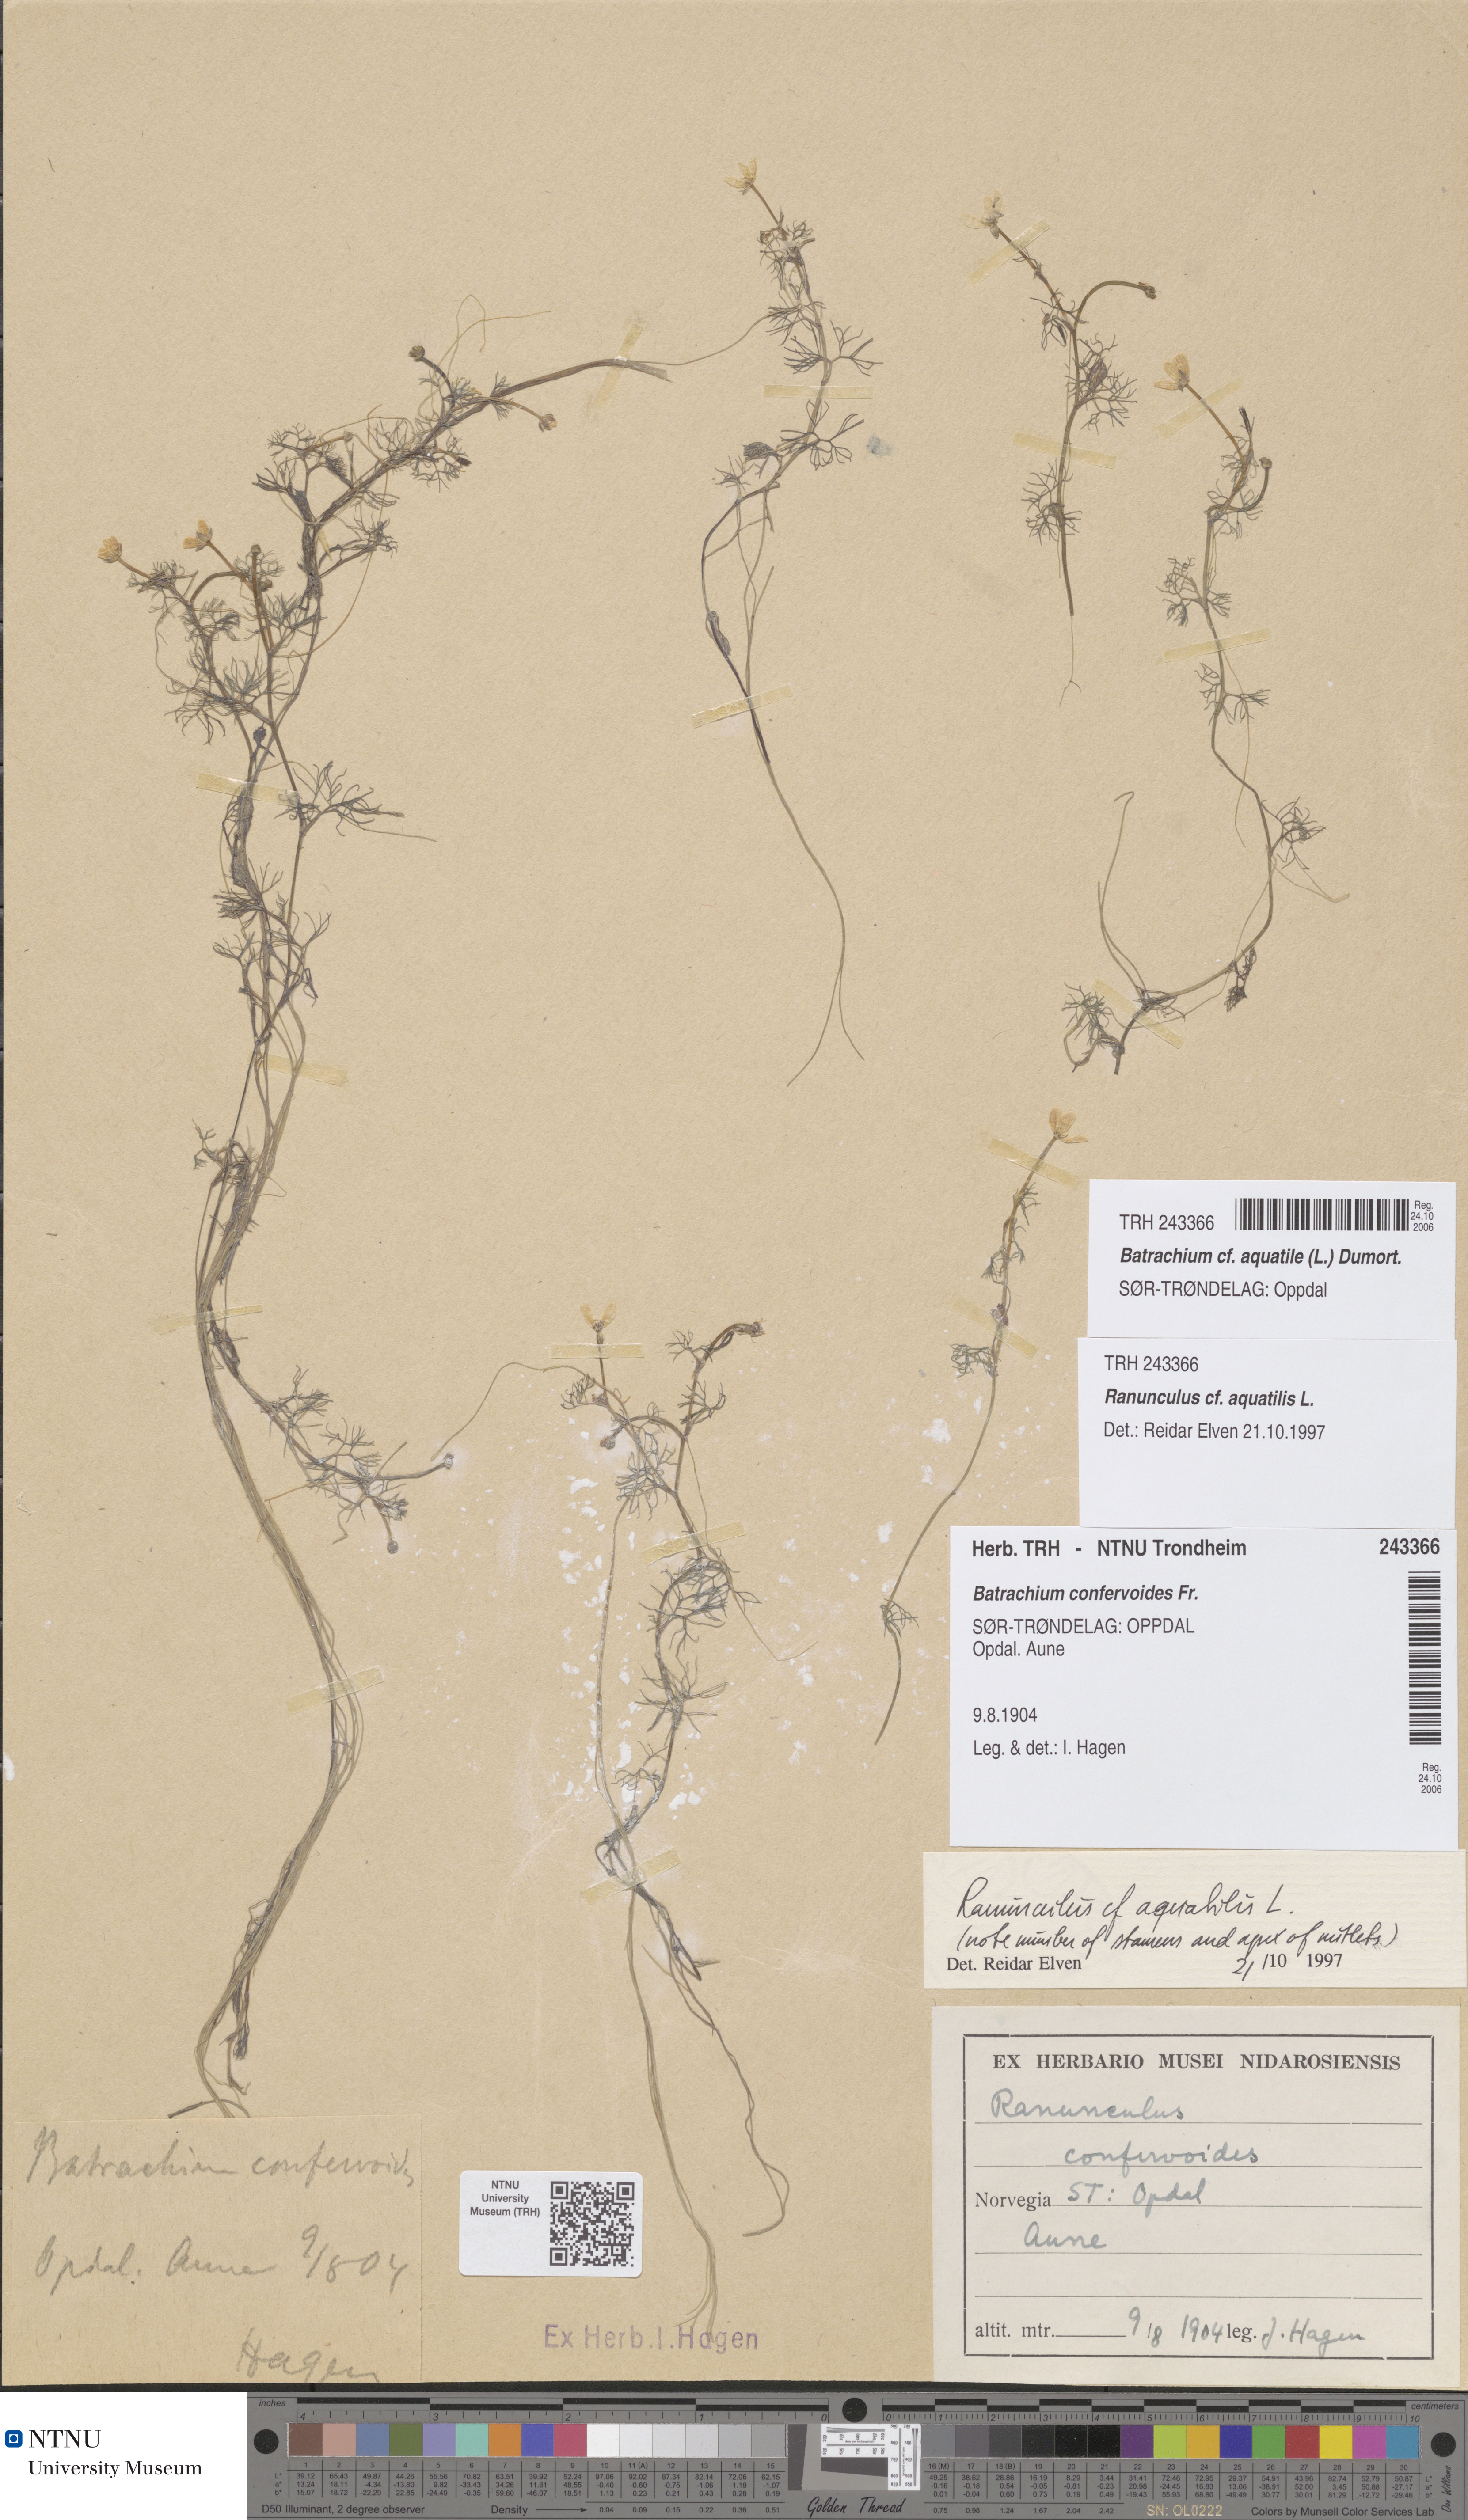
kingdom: Plantae
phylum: Tracheophyta
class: Magnoliopsida
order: Ranunculales
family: Ranunculaceae
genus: Ranunculus
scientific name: Ranunculus aquatilis
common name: Common water-crowfoot
